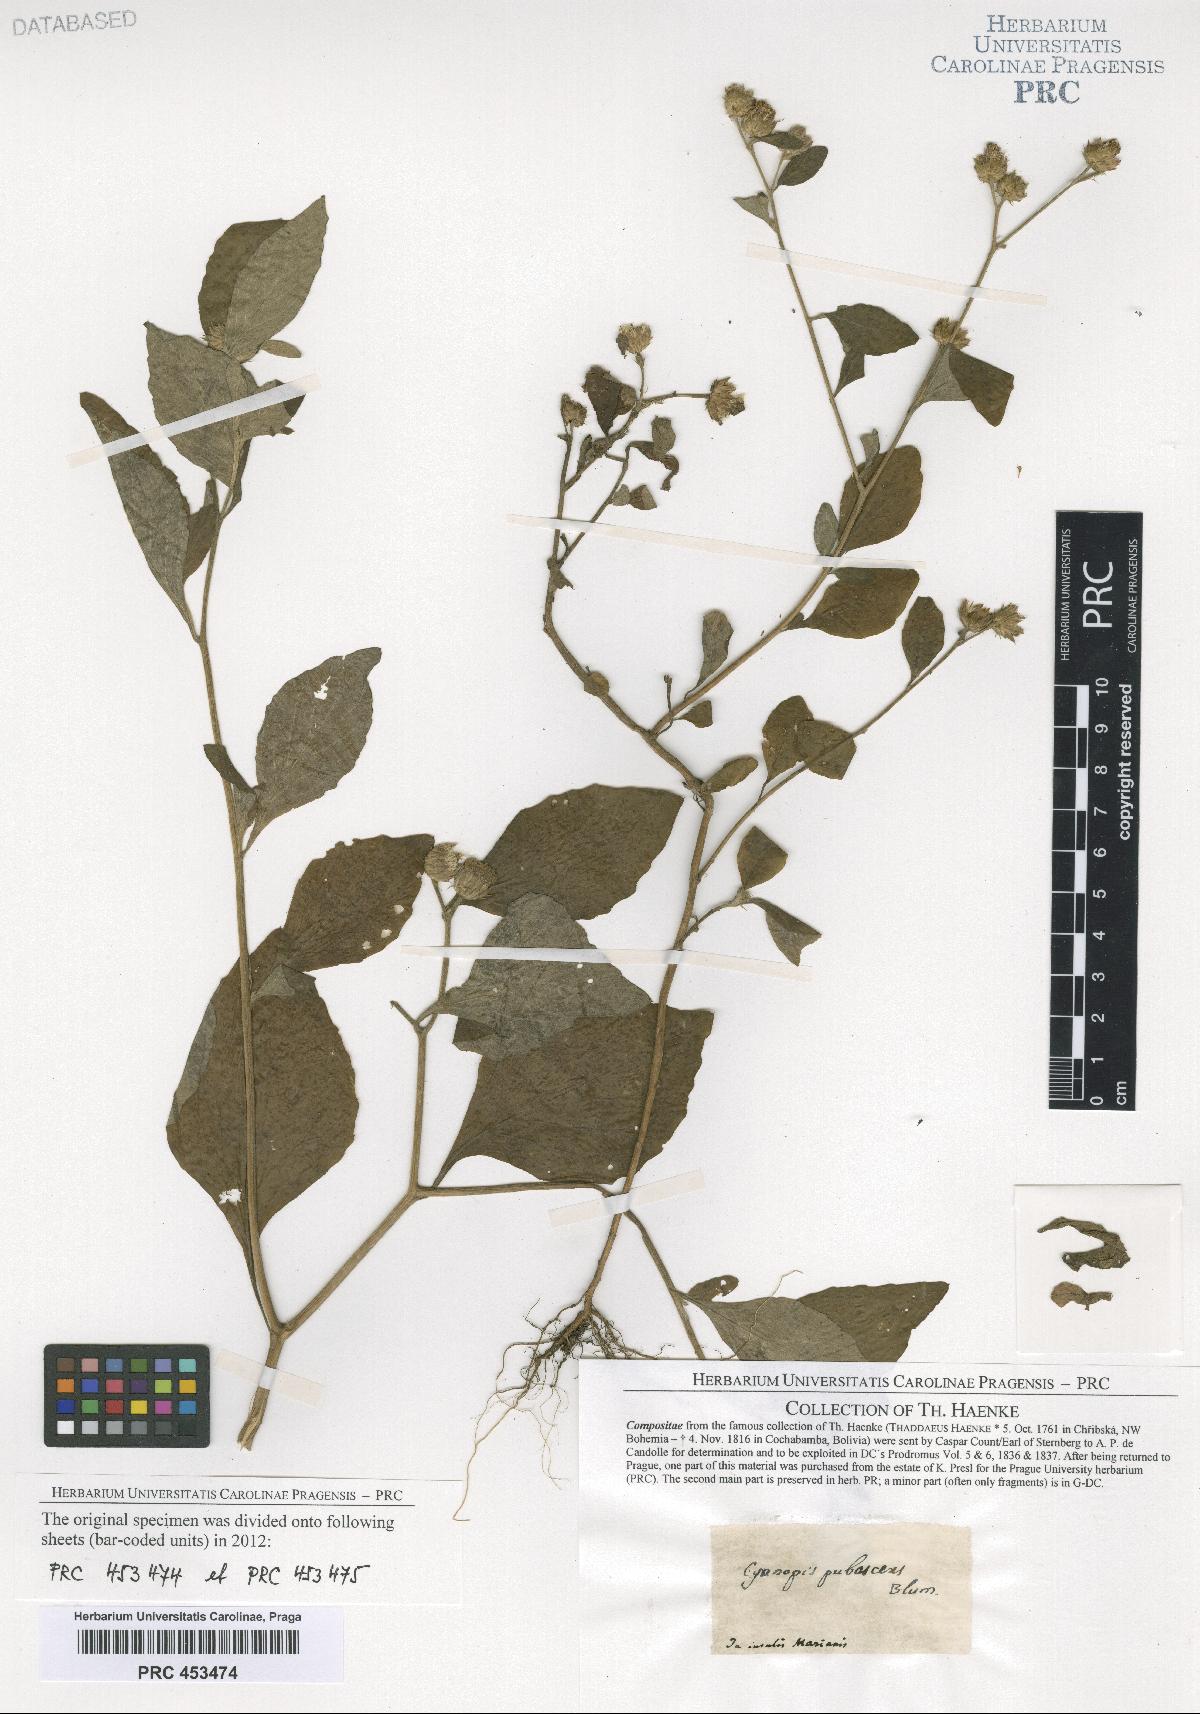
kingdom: Plantae
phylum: Tracheophyta
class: Magnoliopsida
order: Asterales
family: Asteraceae
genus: Vernonia
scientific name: Vernonia
